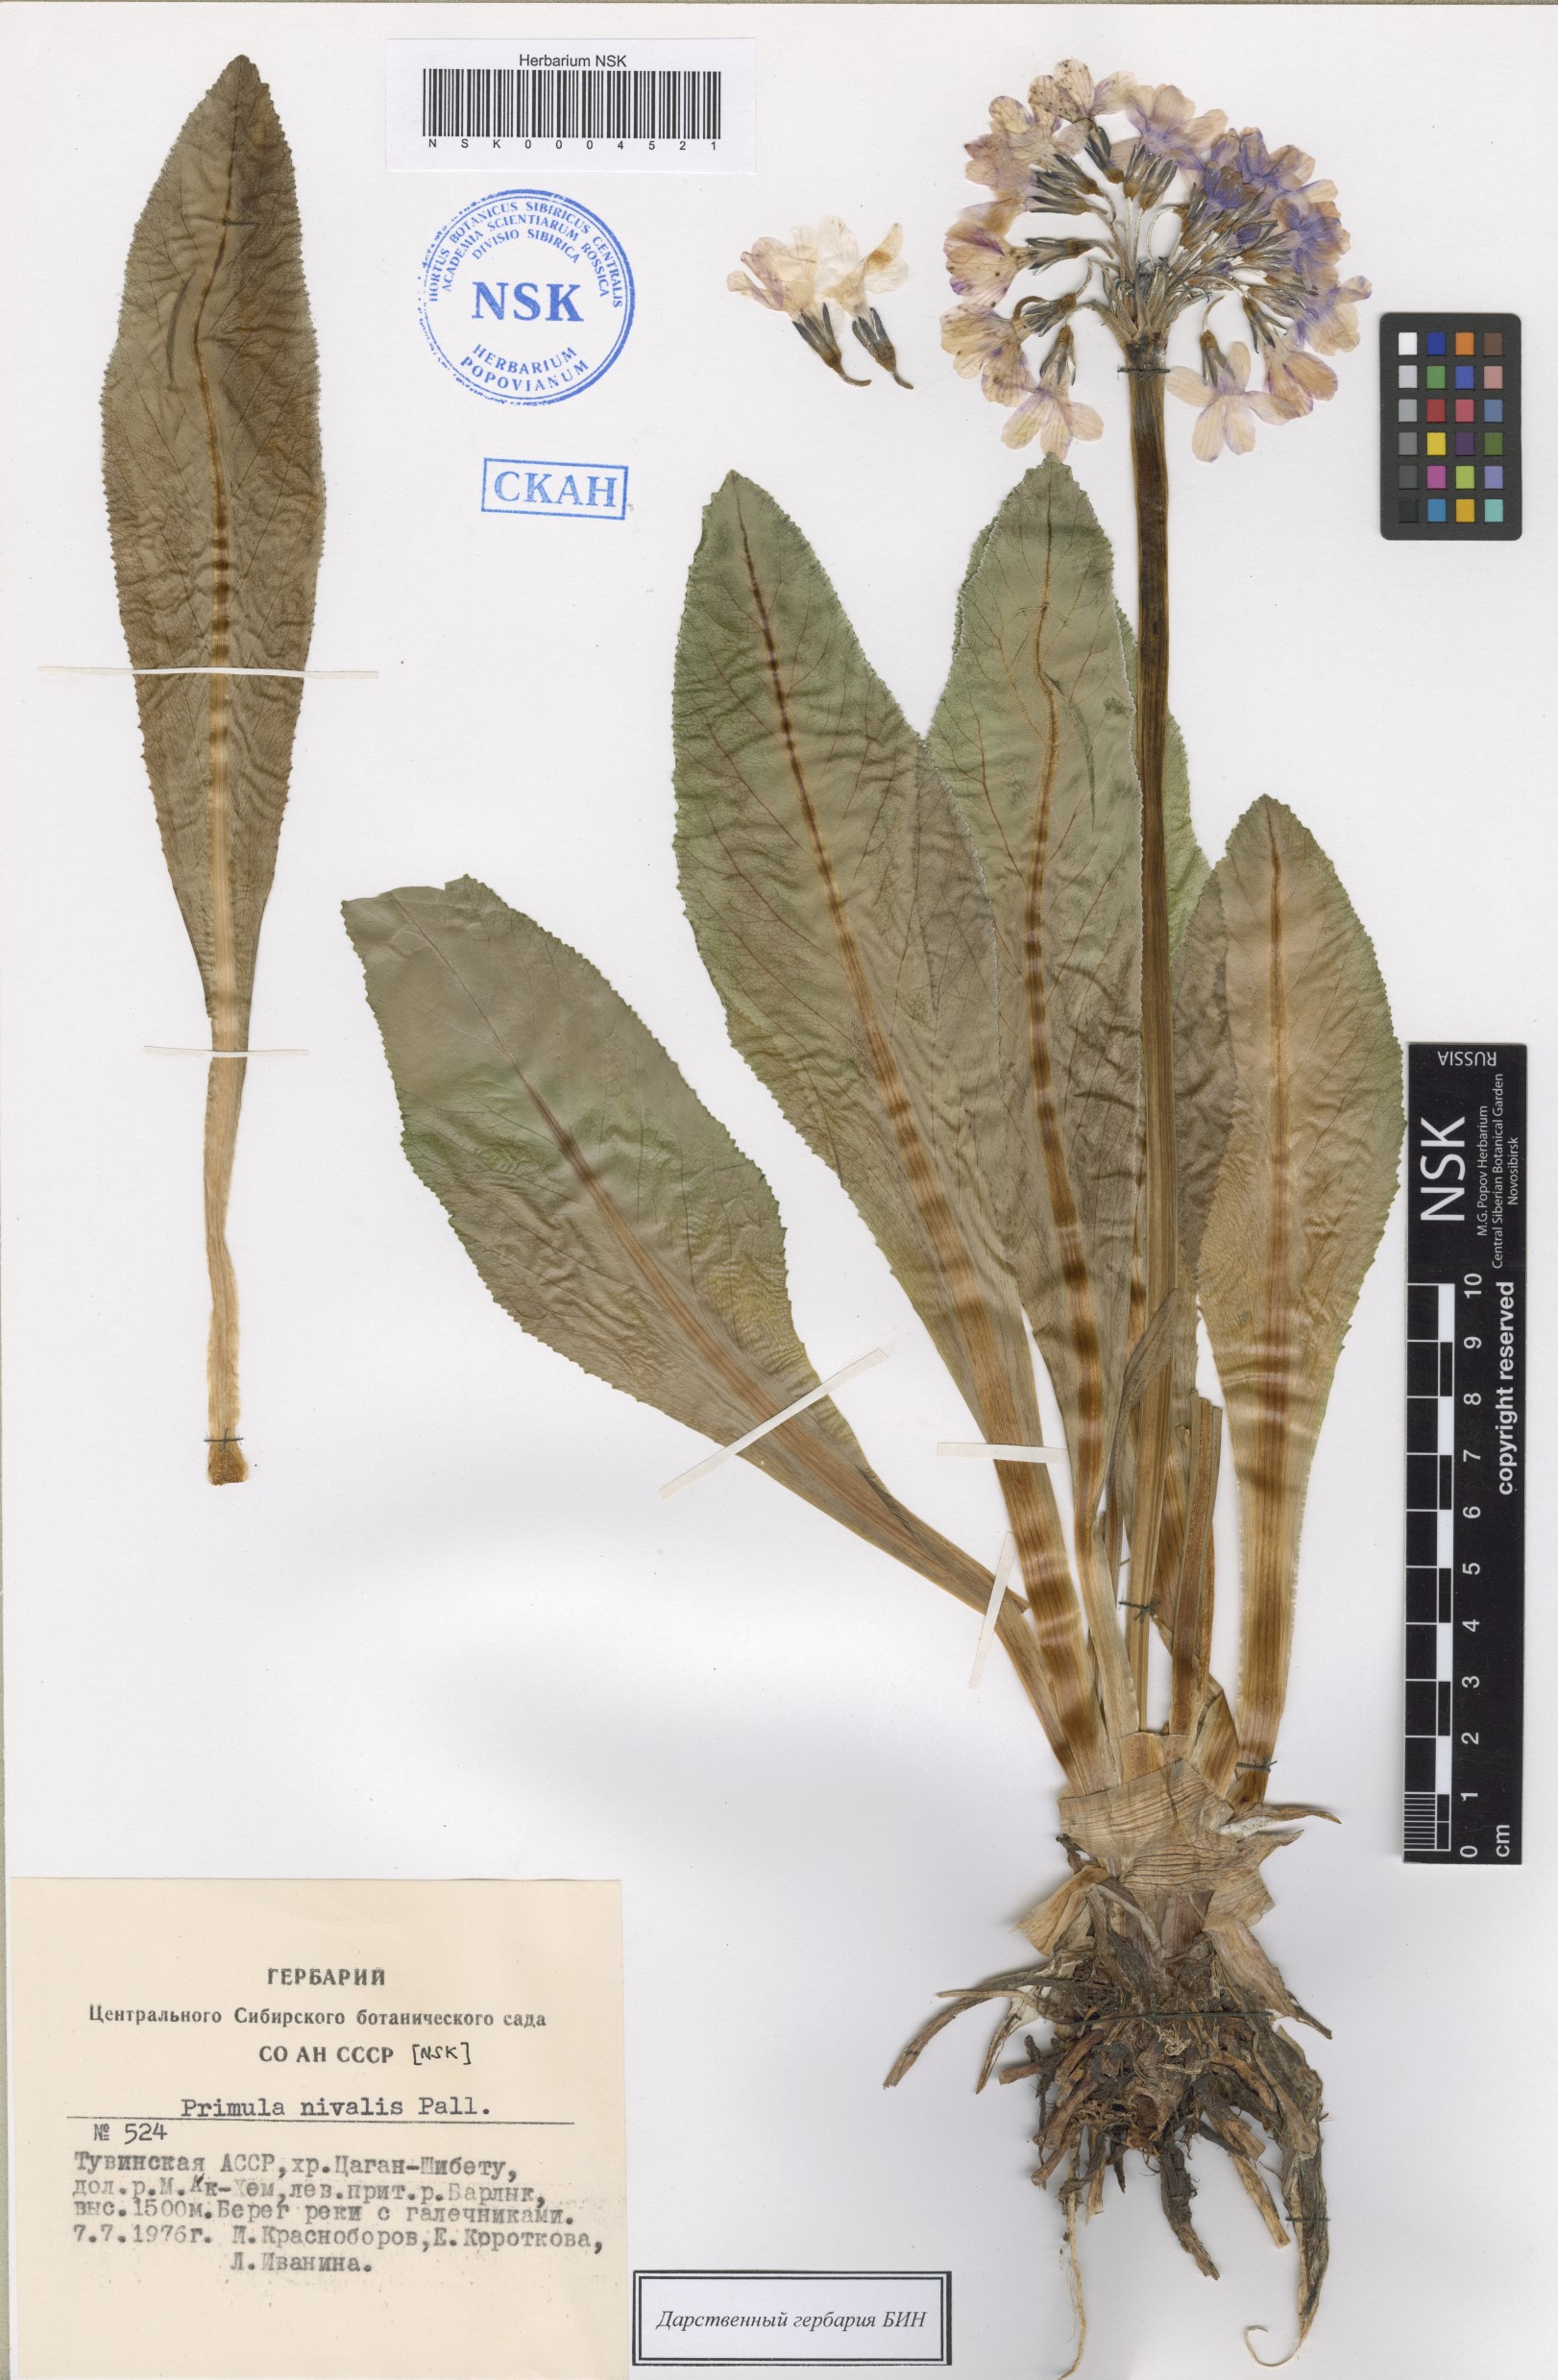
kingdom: Plantae
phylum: Tracheophyta
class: Magnoliopsida
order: Ericales
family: Primulaceae
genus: Primula
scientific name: Primula nivalis
